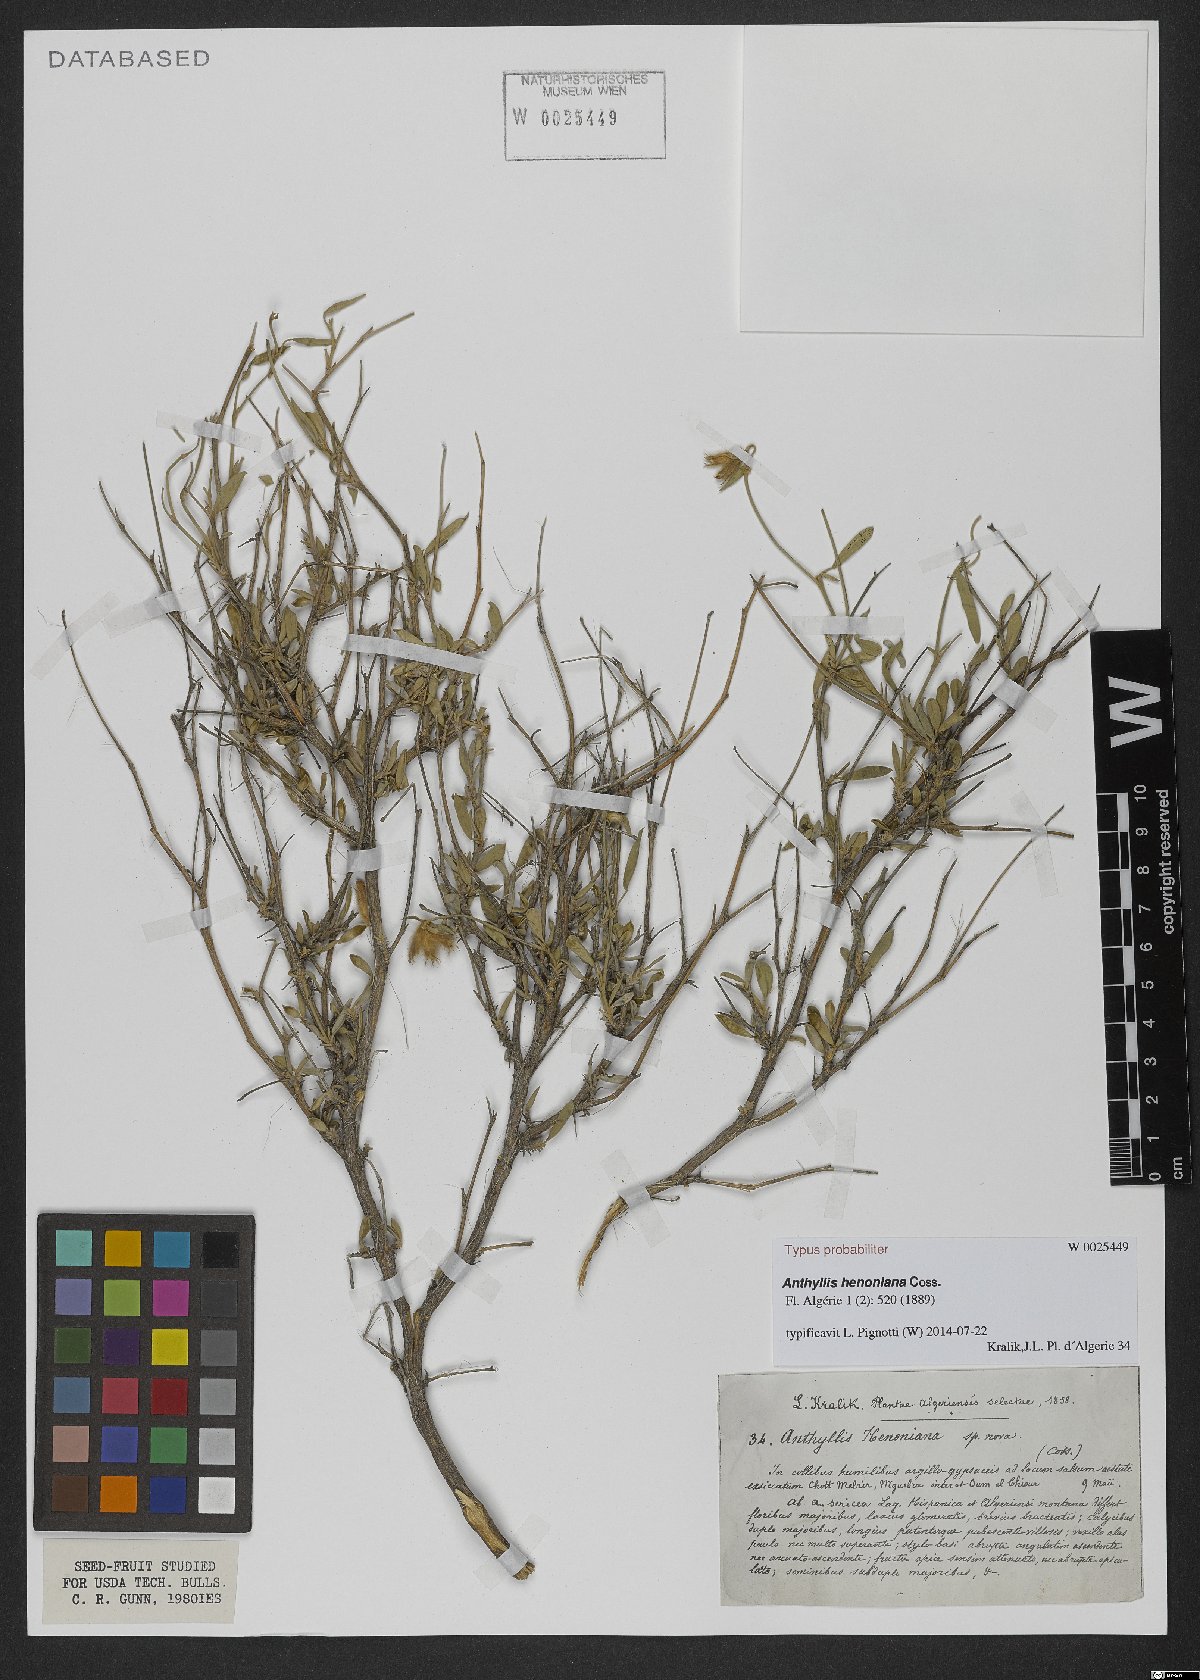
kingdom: Plantae
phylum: Tracheophyta
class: Magnoliopsida
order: Fabales
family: Fabaceae
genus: Anthyllis
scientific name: Anthyllis henoniana
